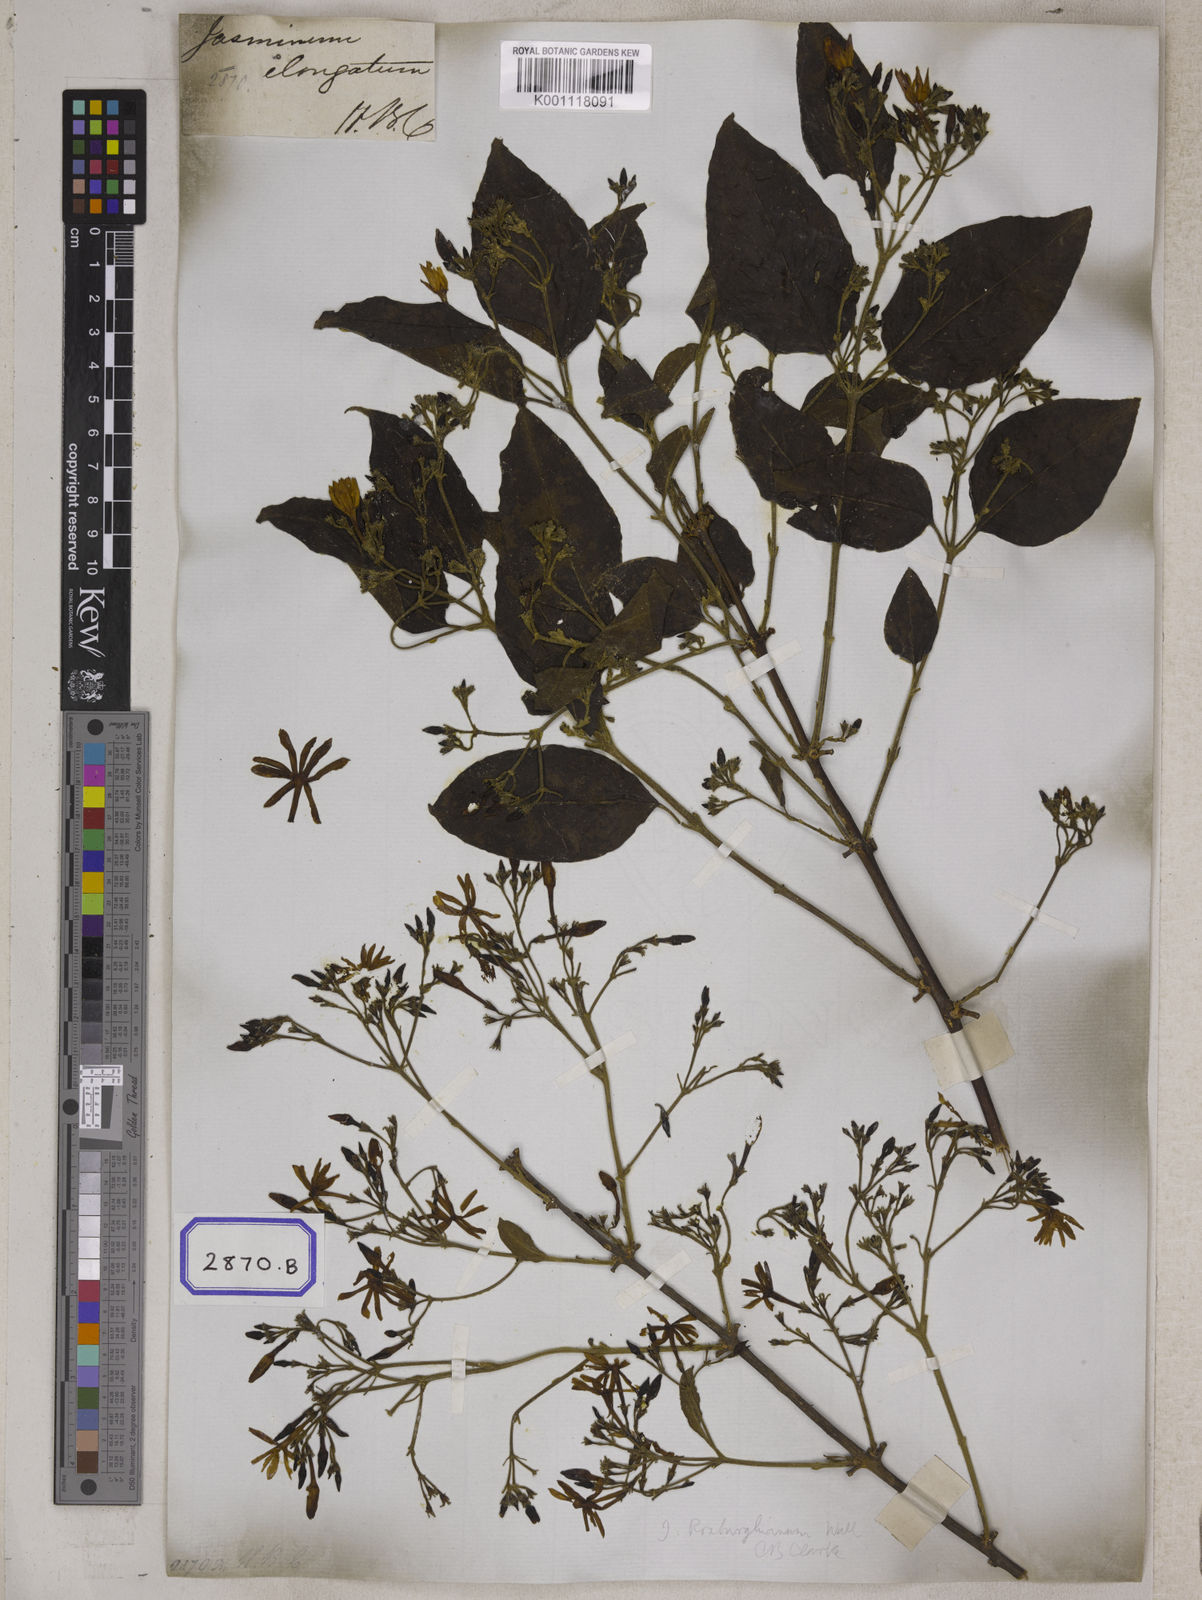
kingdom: Plantae
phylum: Tracheophyta
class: Magnoliopsida
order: Lamiales
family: Oleaceae
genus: Jasminum
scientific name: Jasminum
